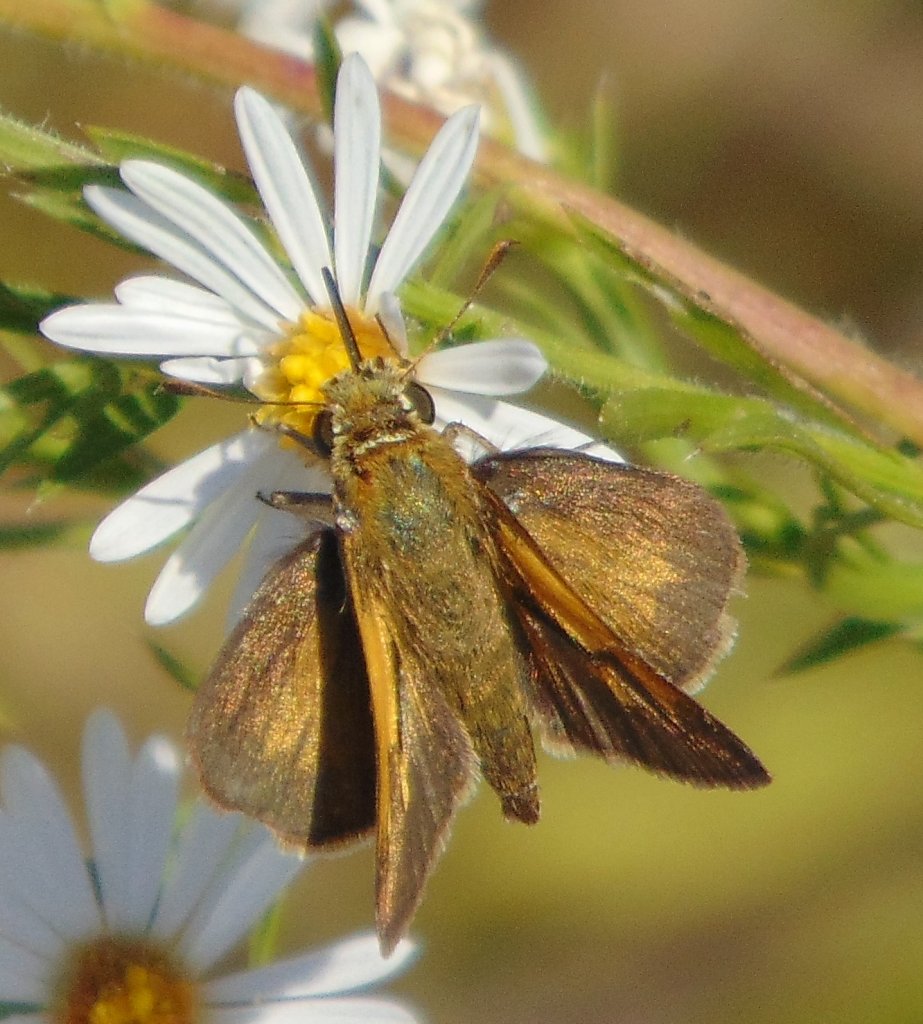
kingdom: Animalia
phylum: Arthropoda
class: Insecta
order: Lepidoptera
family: Hesperiidae
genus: Polites
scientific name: Polites themistocles
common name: Tawny-edged Skipper
